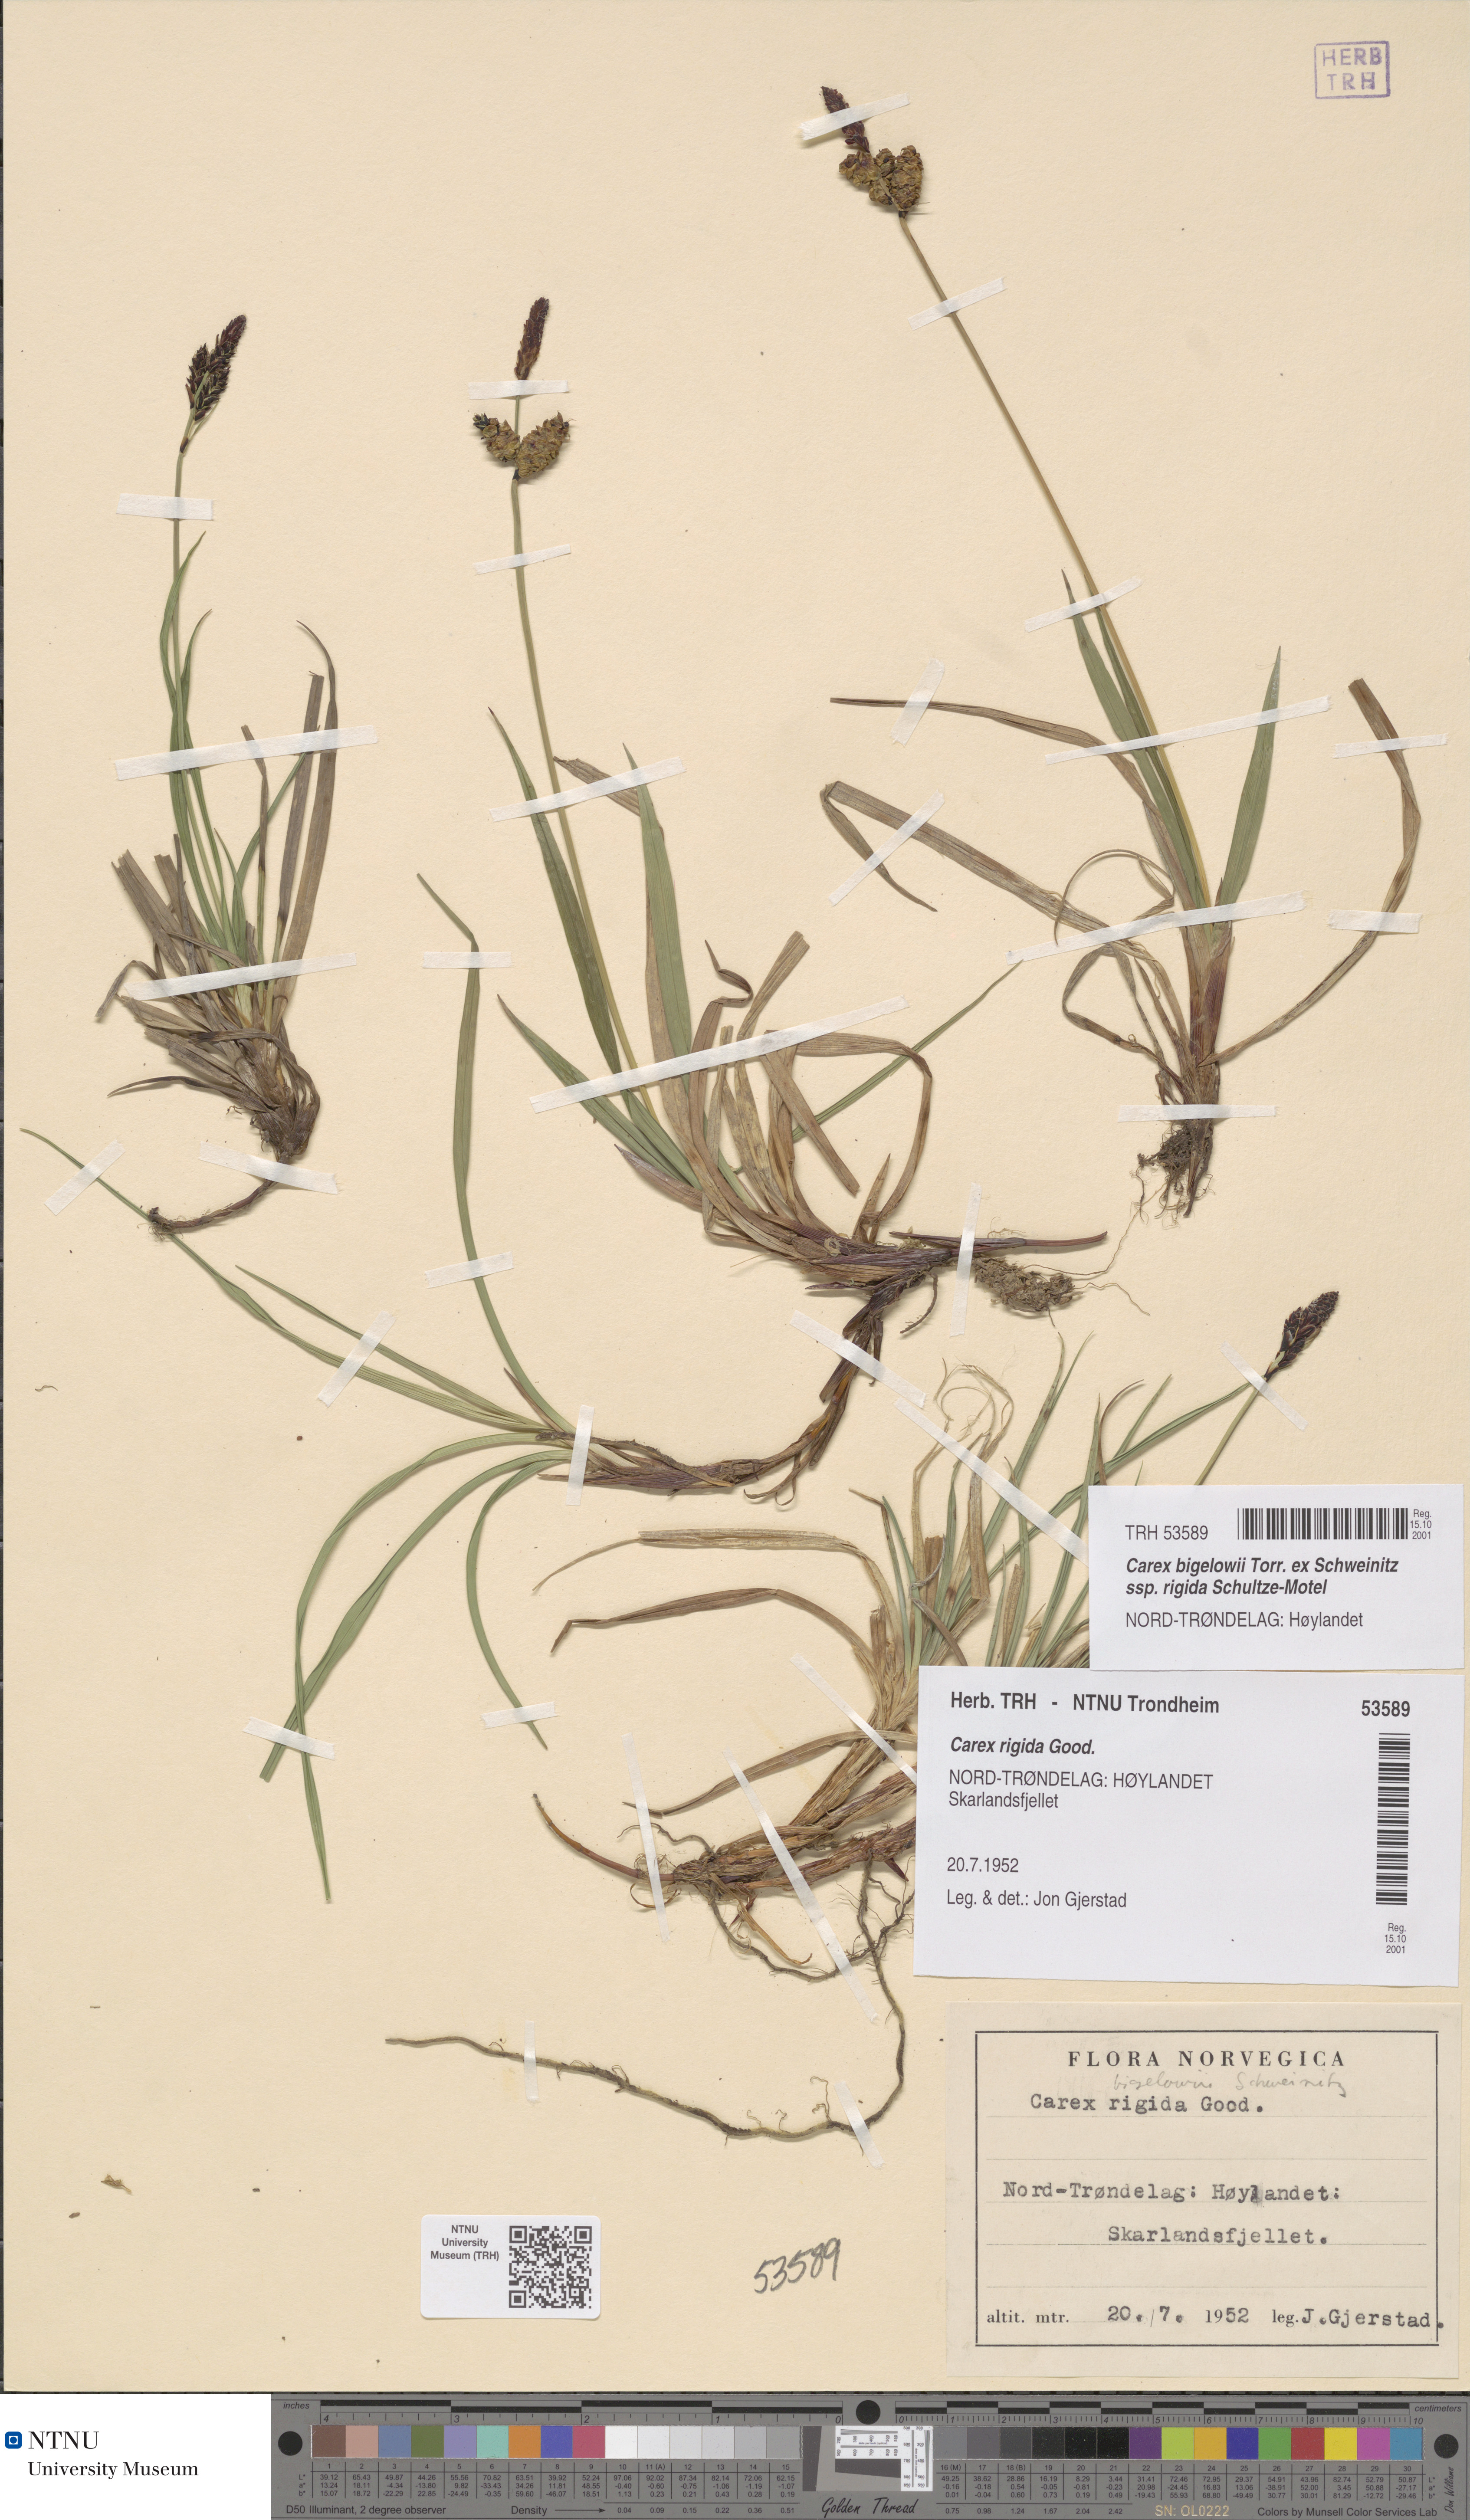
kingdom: Plantae
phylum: Tracheophyta
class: Liliopsida
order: Poales
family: Cyperaceae
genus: Carex
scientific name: Carex dacica
